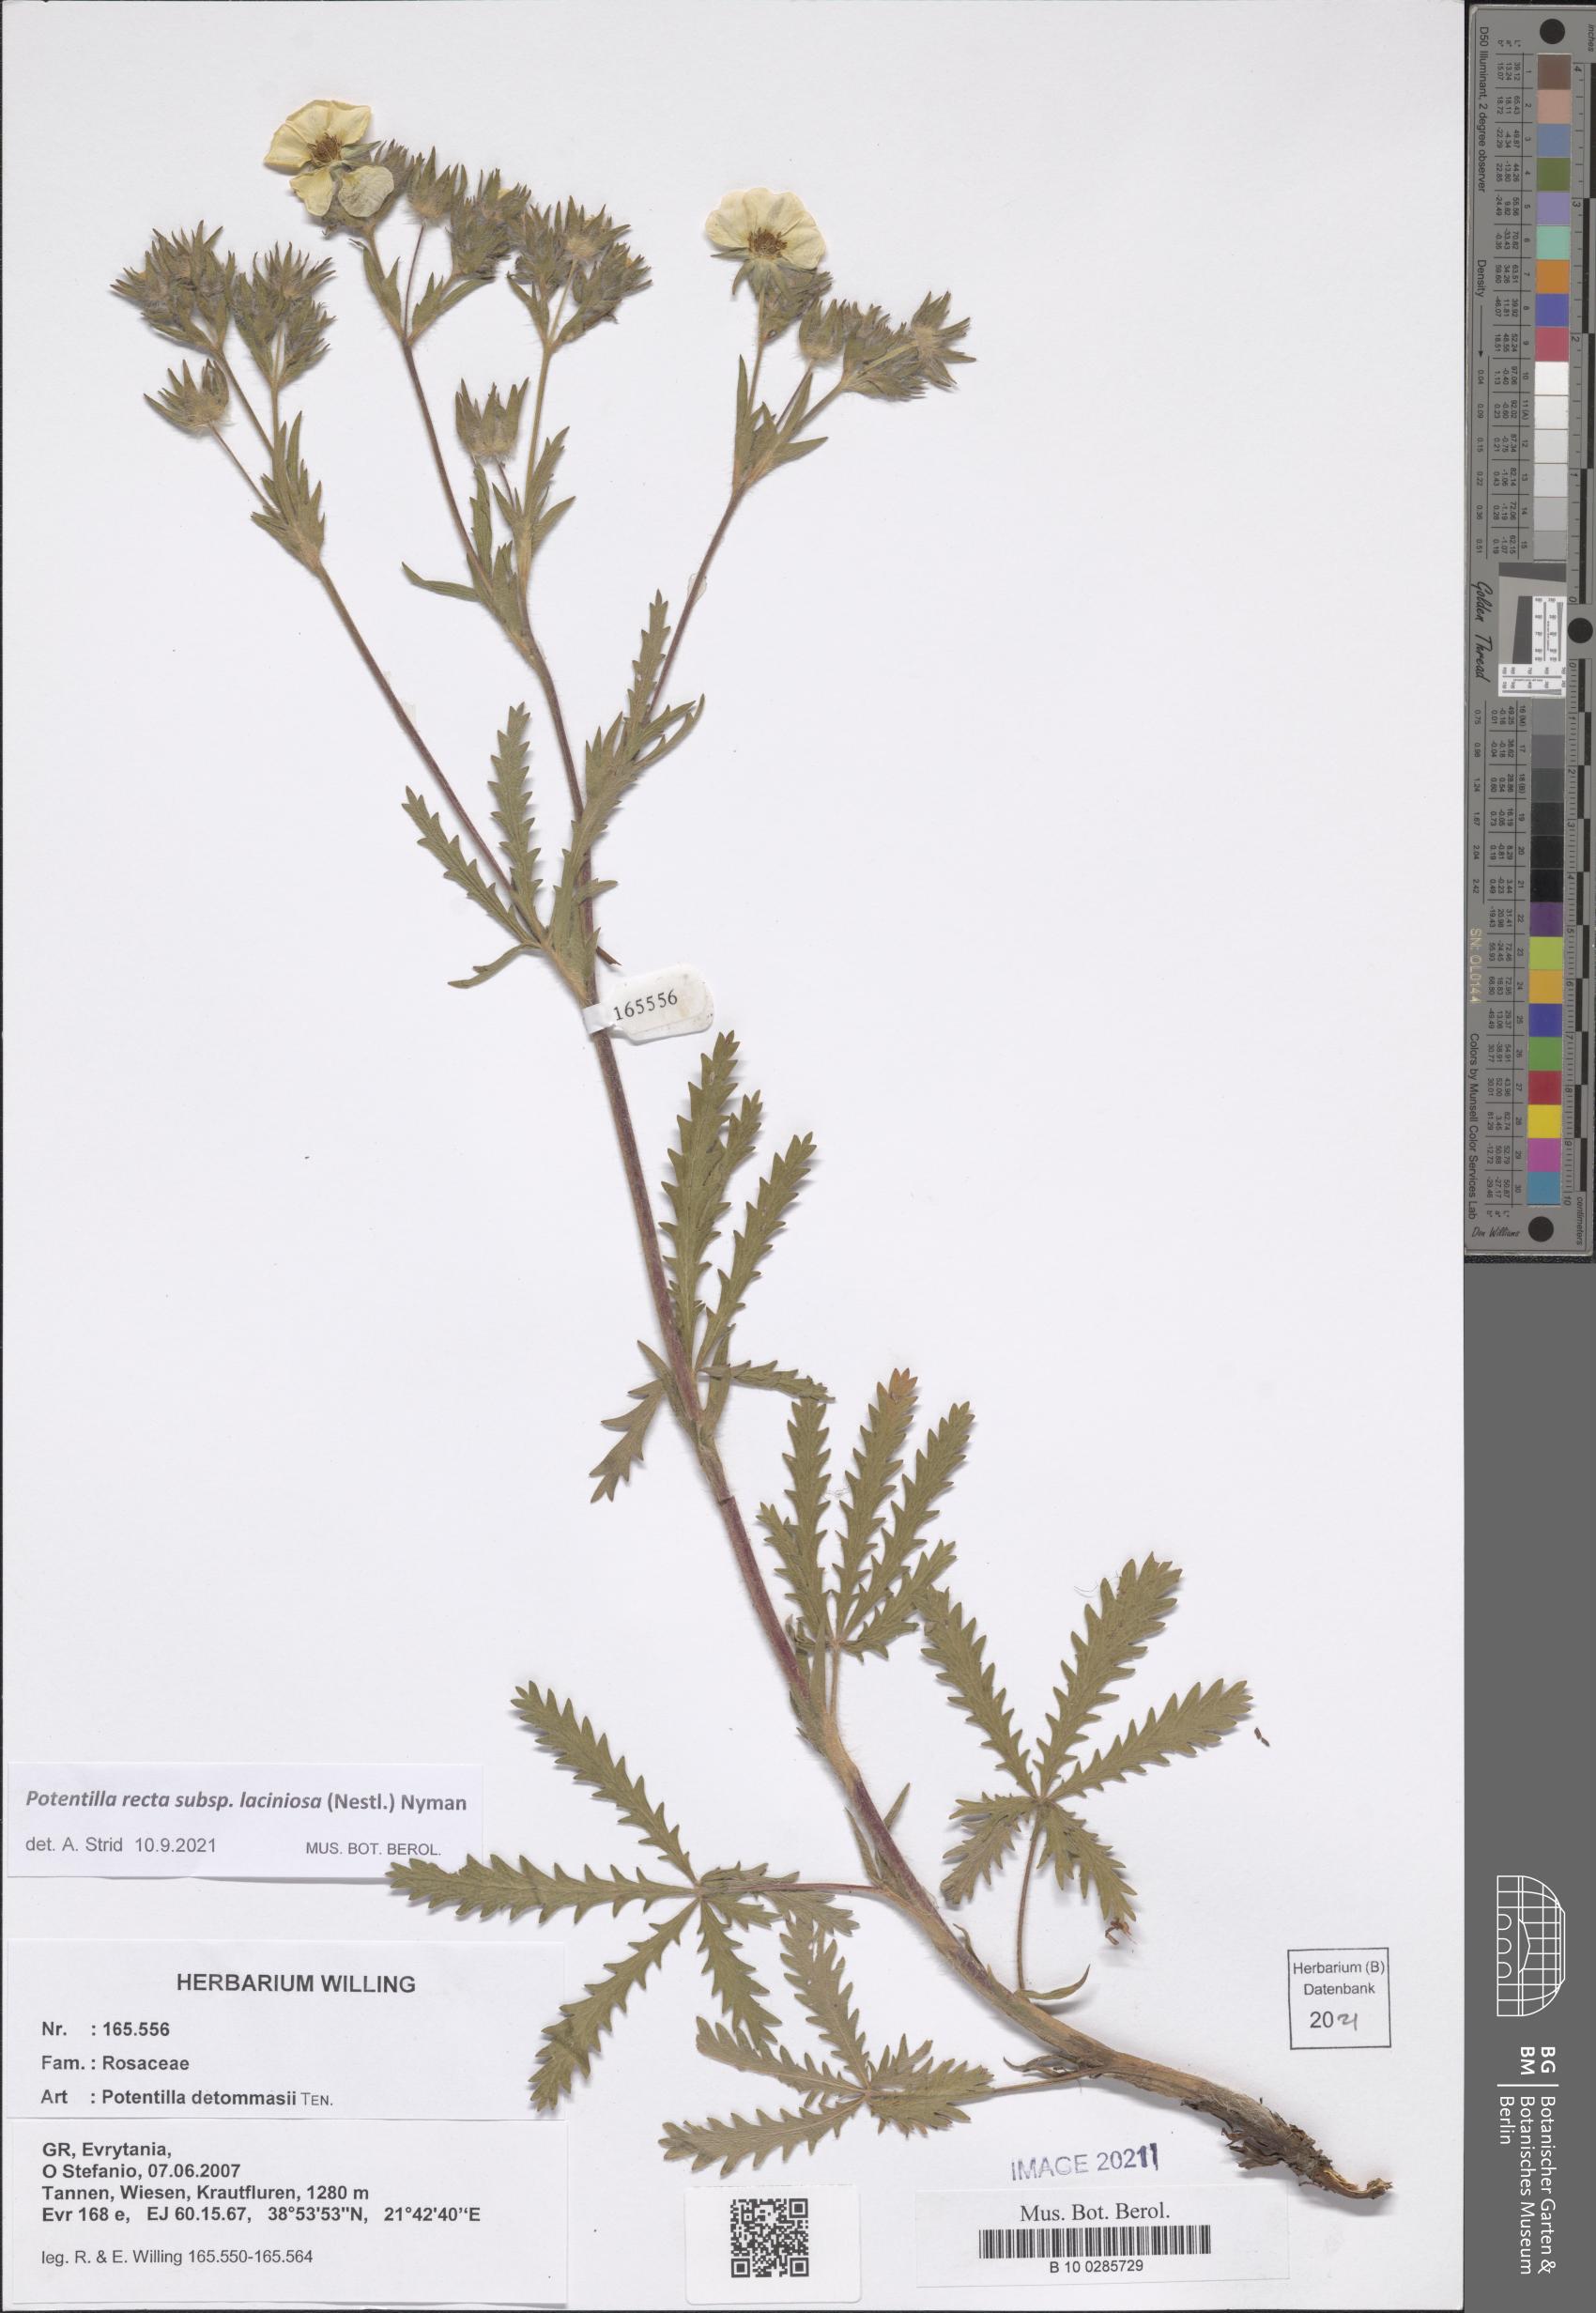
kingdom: Plantae
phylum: Tracheophyta
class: Magnoliopsida
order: Rosales
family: Rosaceae
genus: Potentilla
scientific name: Potentilla recta
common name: Sulphur cinquefoil
